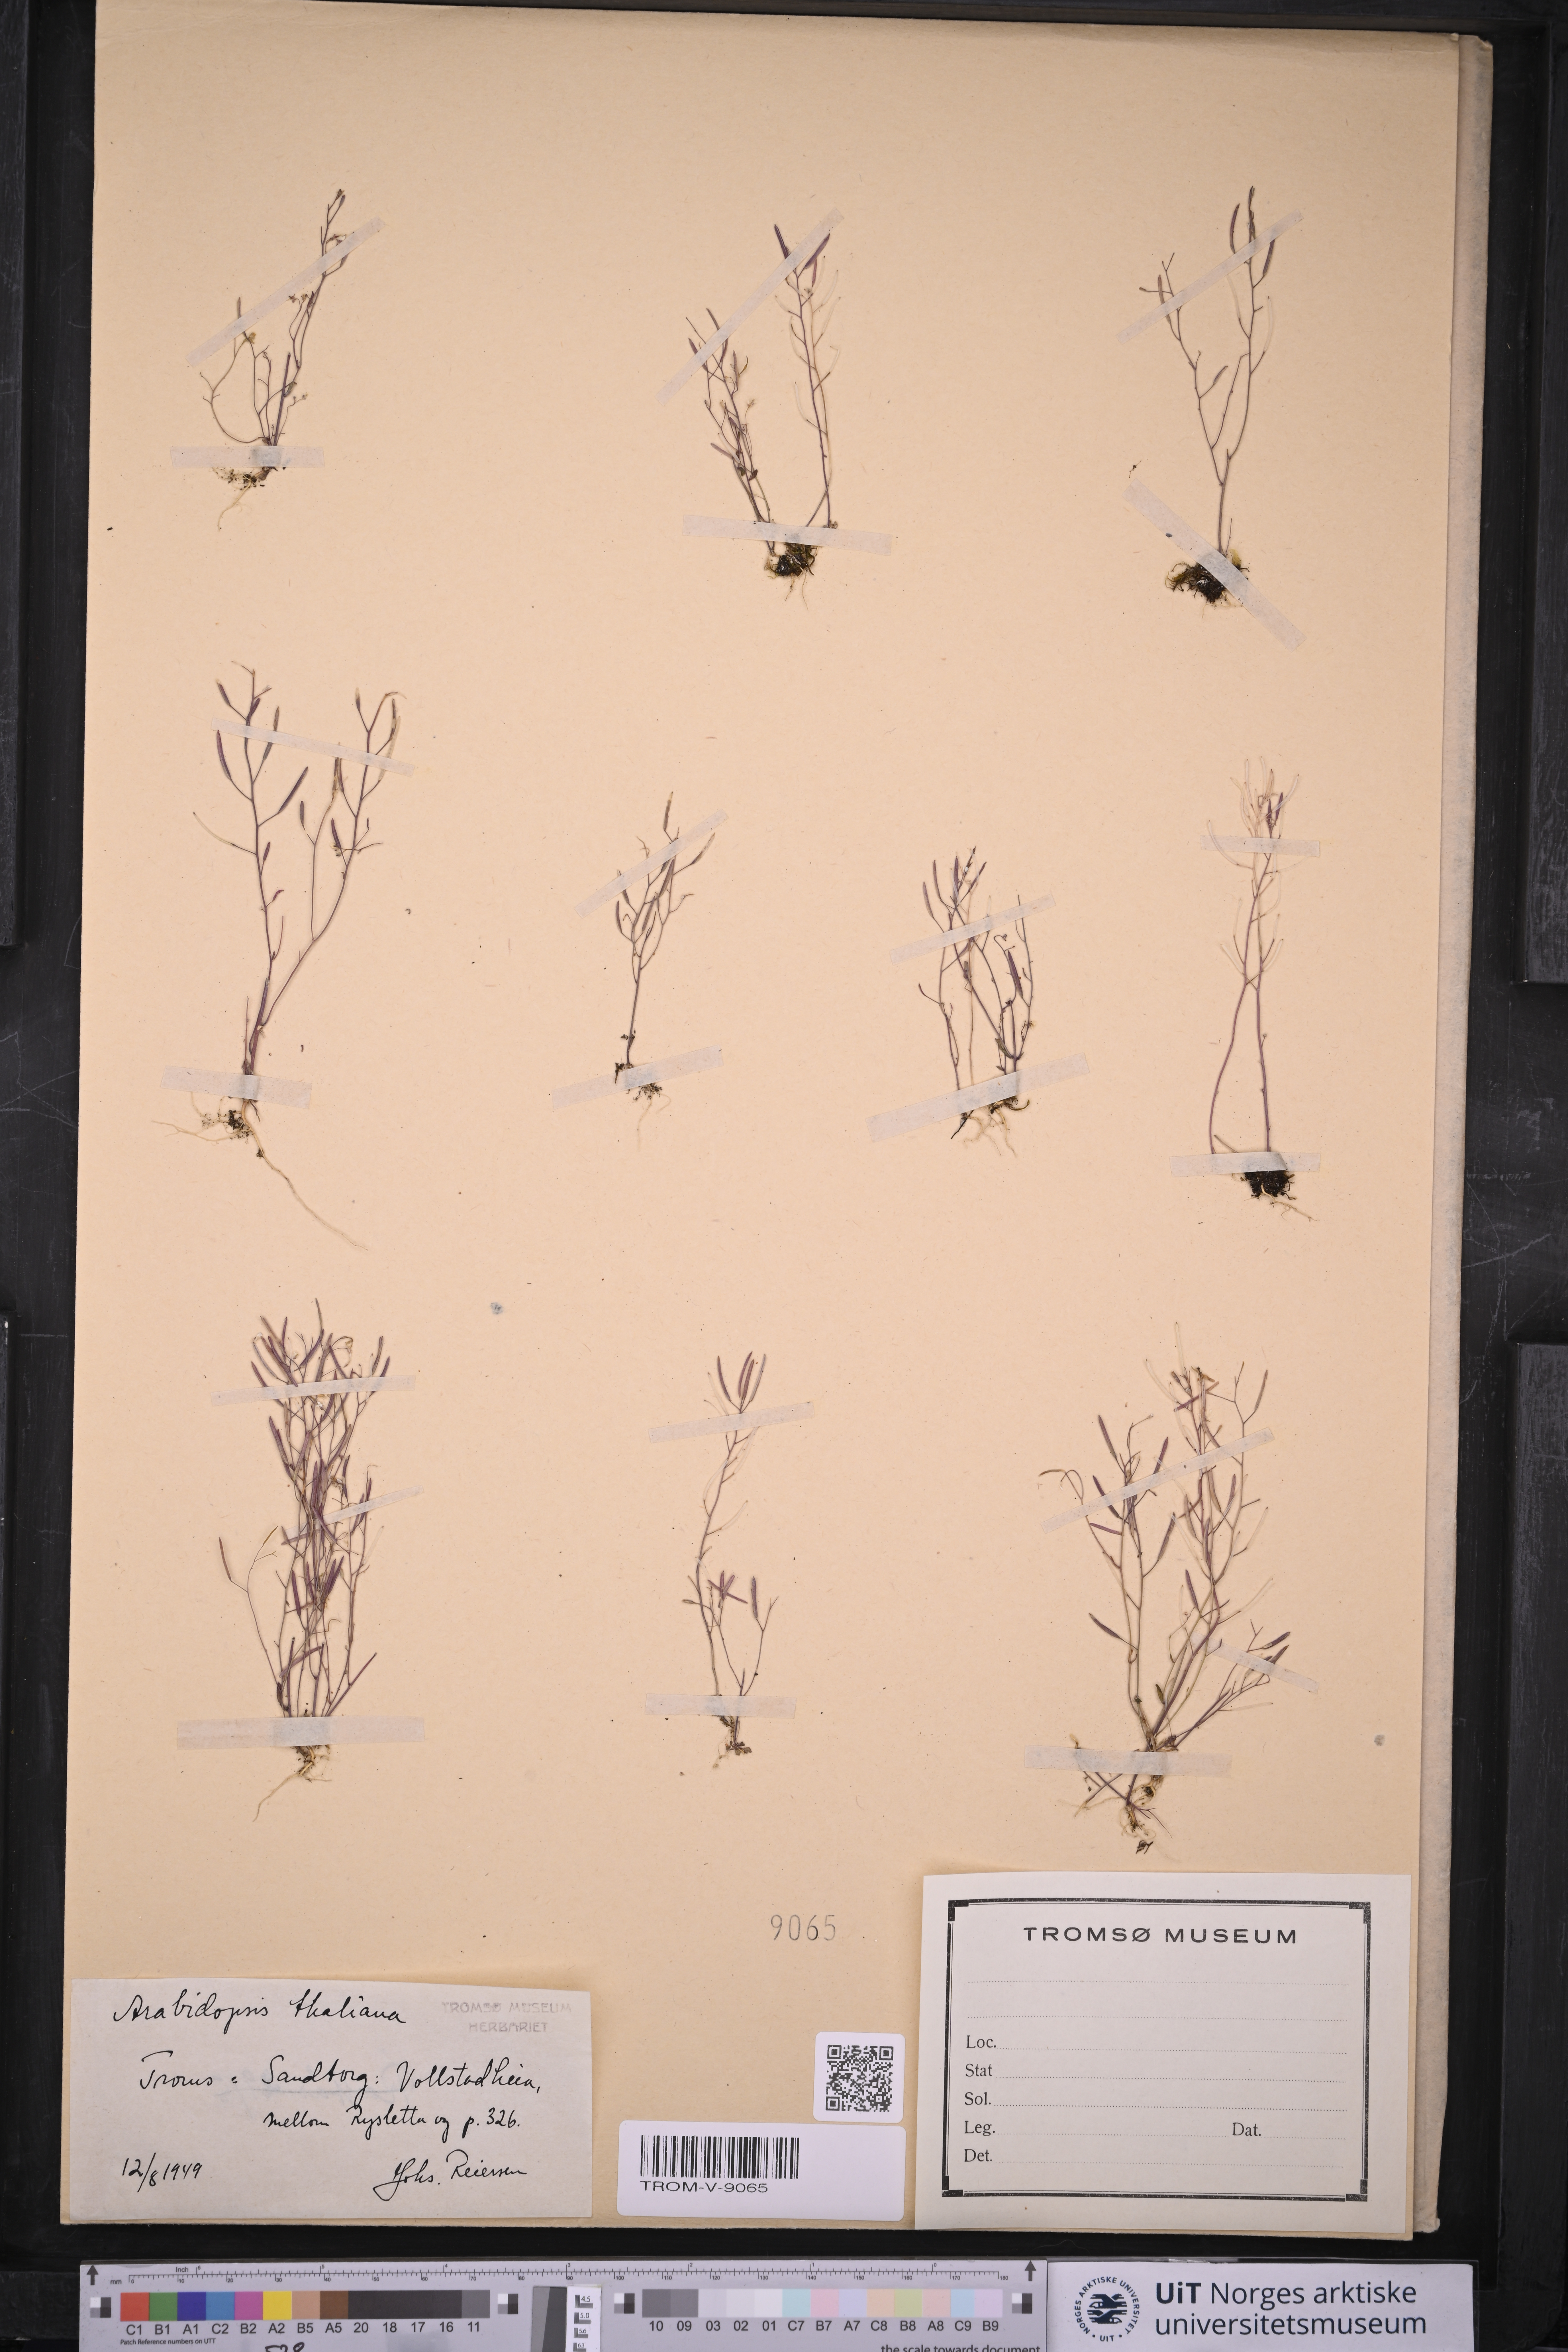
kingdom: Plantae
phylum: Tracheophyta
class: Magnoliopsida
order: Brassicales
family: Brassicaceae
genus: Arabidopsis
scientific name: Arabidopsis thaliana
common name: Thale cress
